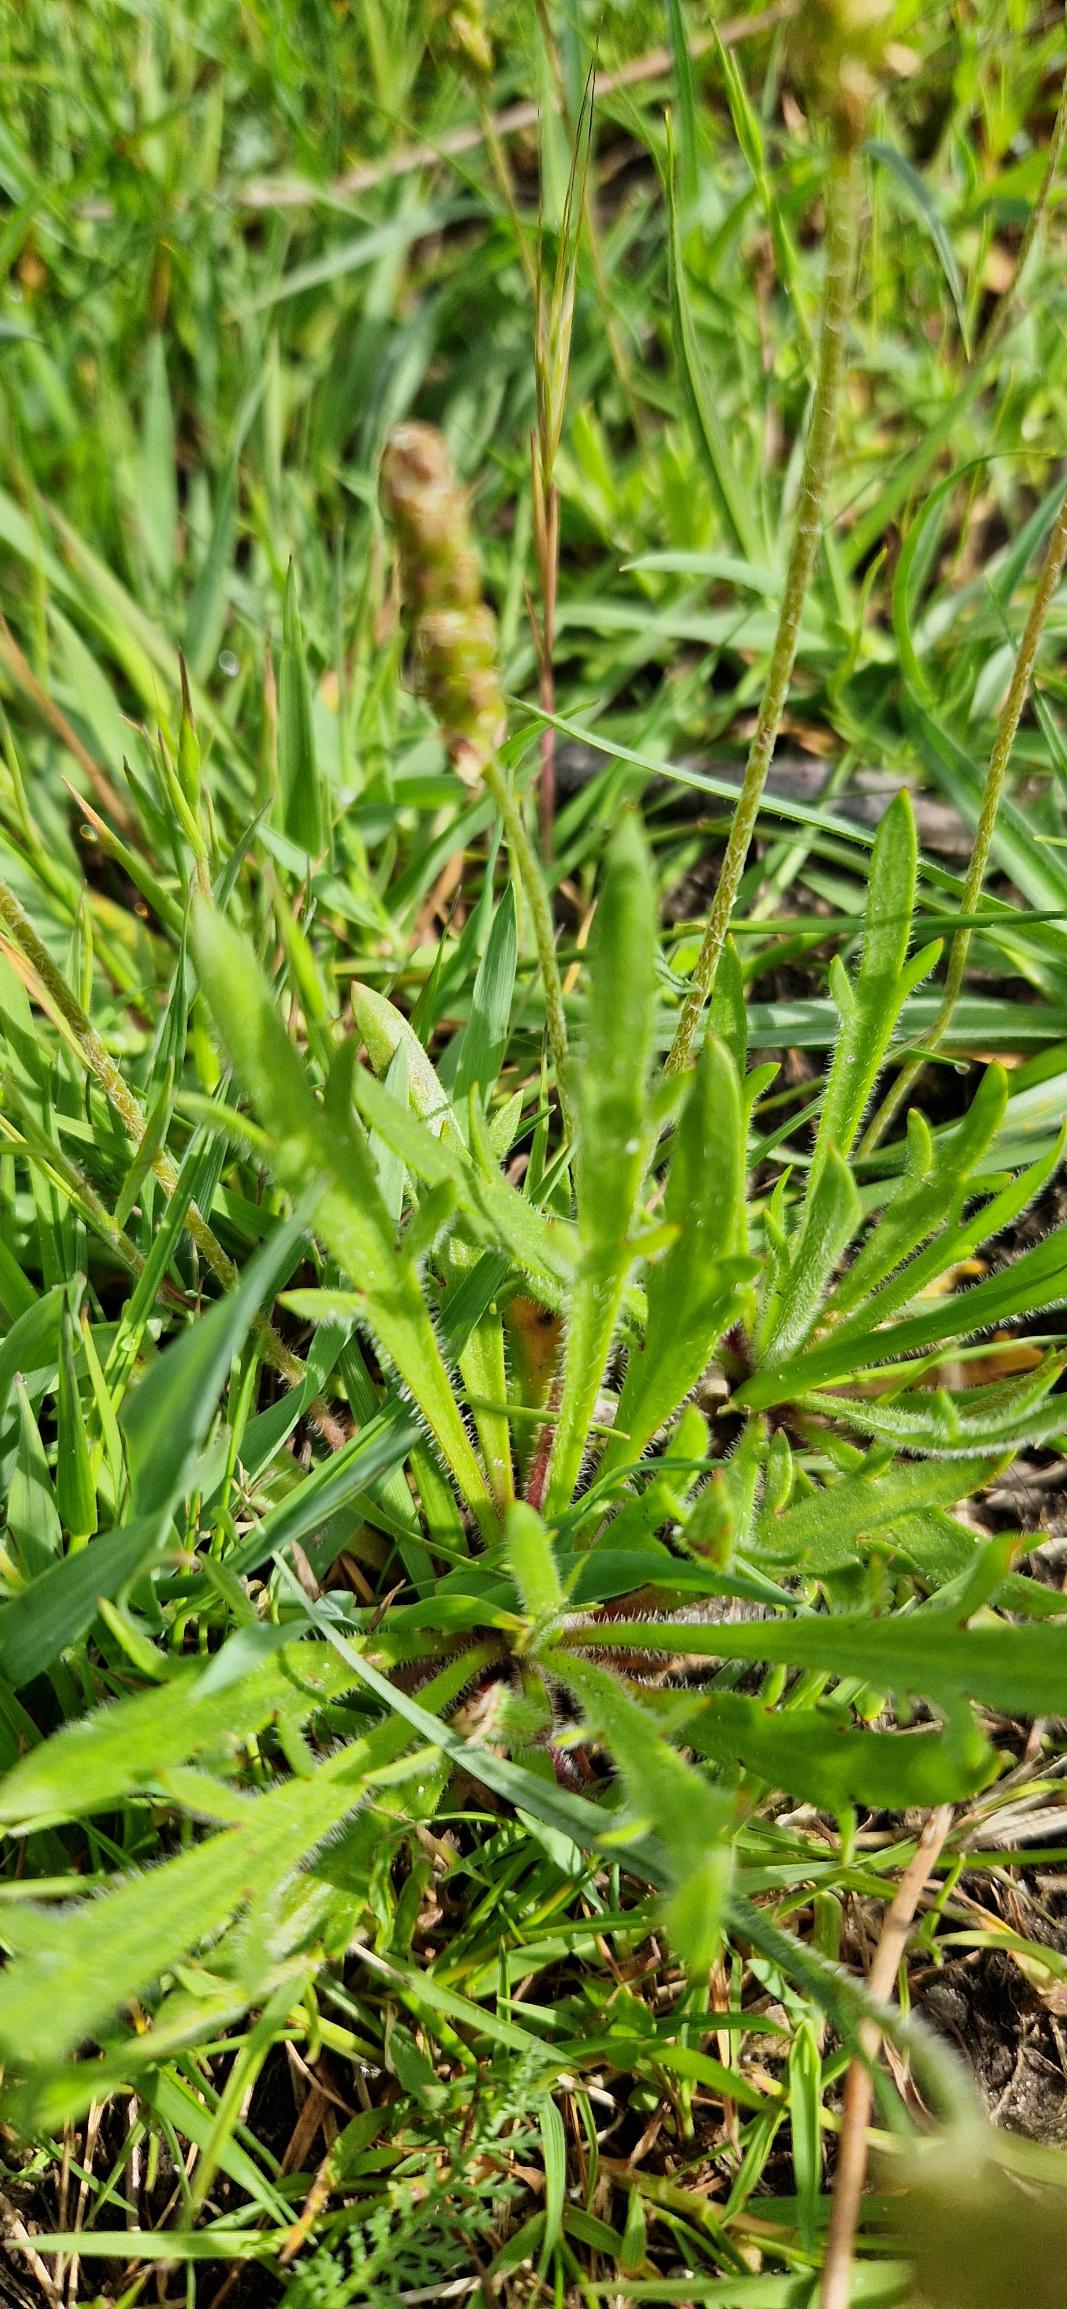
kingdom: Plantae
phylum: Tracheophyta
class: Magnoliopsida
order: Lamiales
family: Plantaginaceae
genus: Plantago
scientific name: Plantago coronopus
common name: Fliget vejbred
